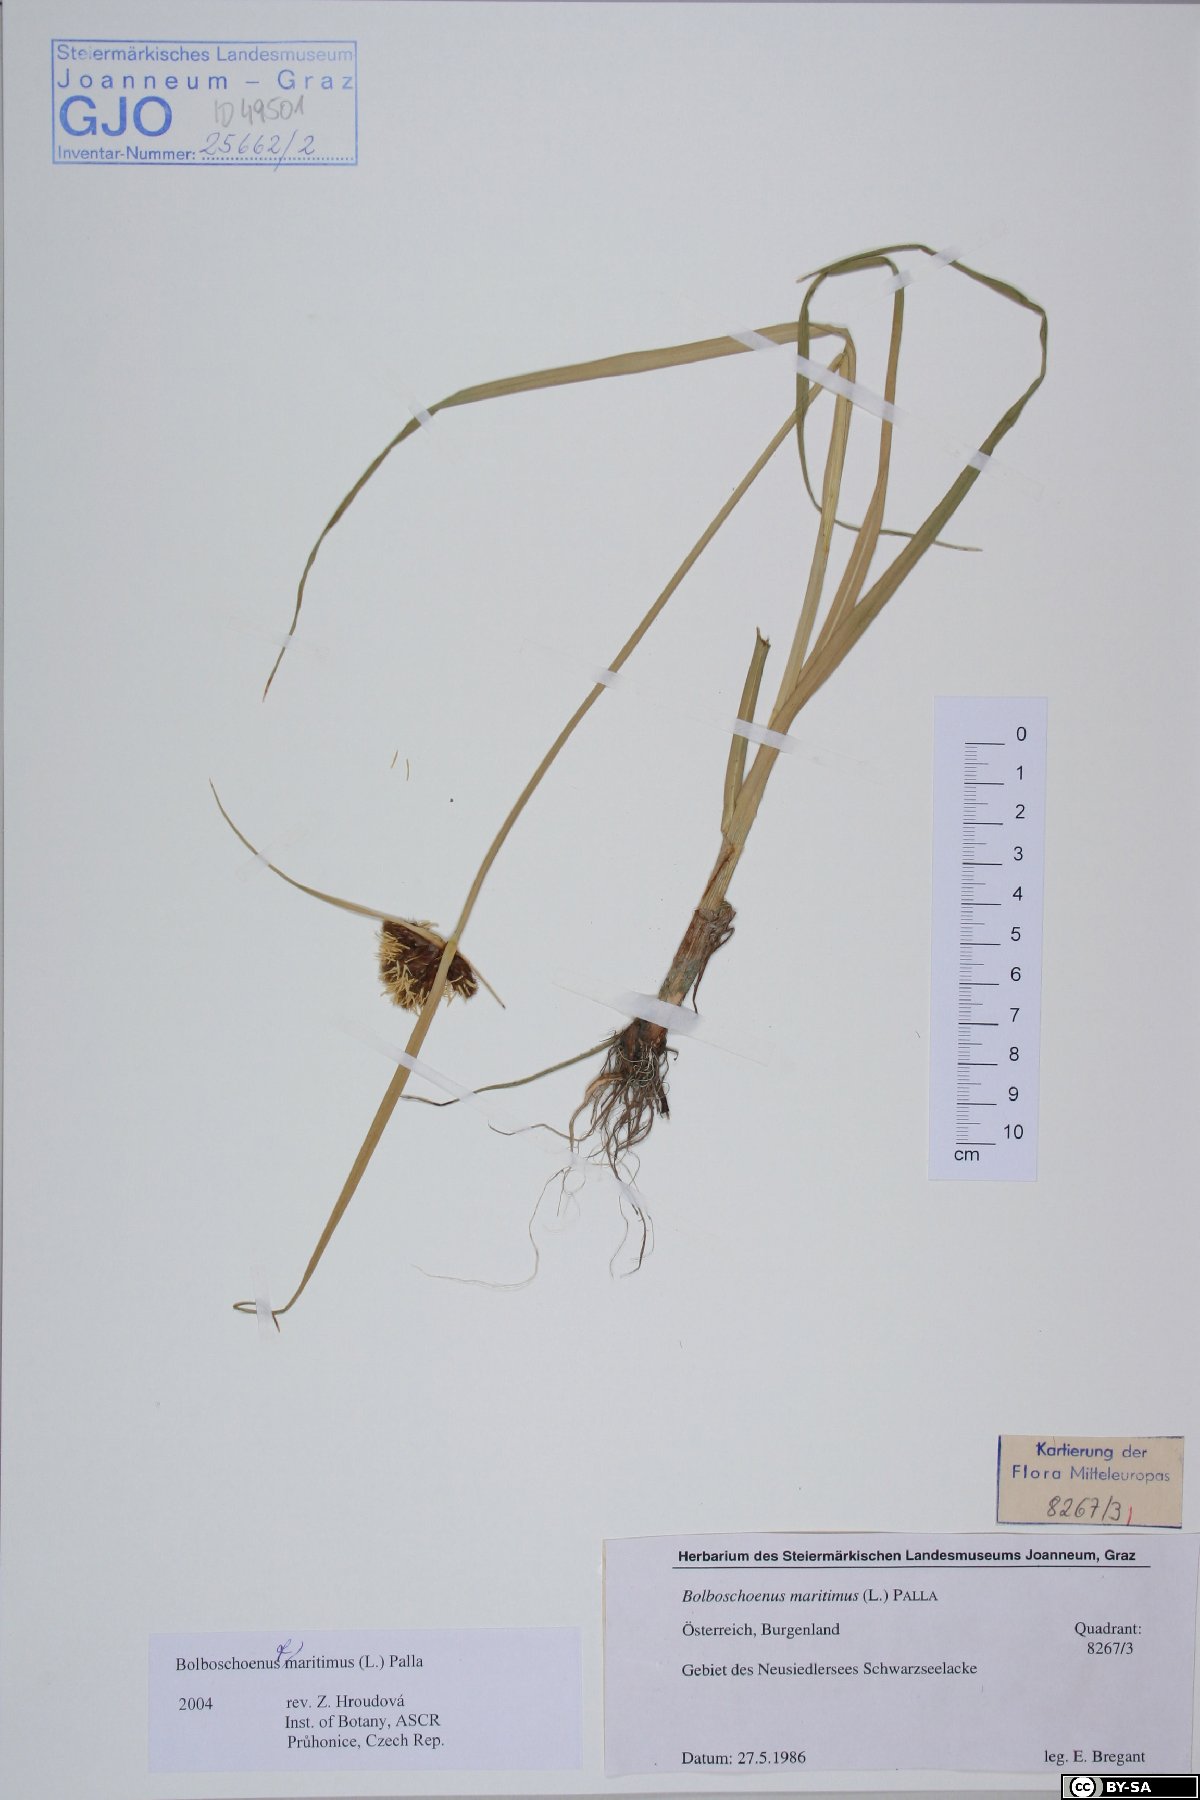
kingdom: Plantae
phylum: Tracheophyta
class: Liliopsida
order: Poales
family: Cyperaceae
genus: Bolboschoenus
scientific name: Bolboschoenus maritimus
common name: Sea club-rush
